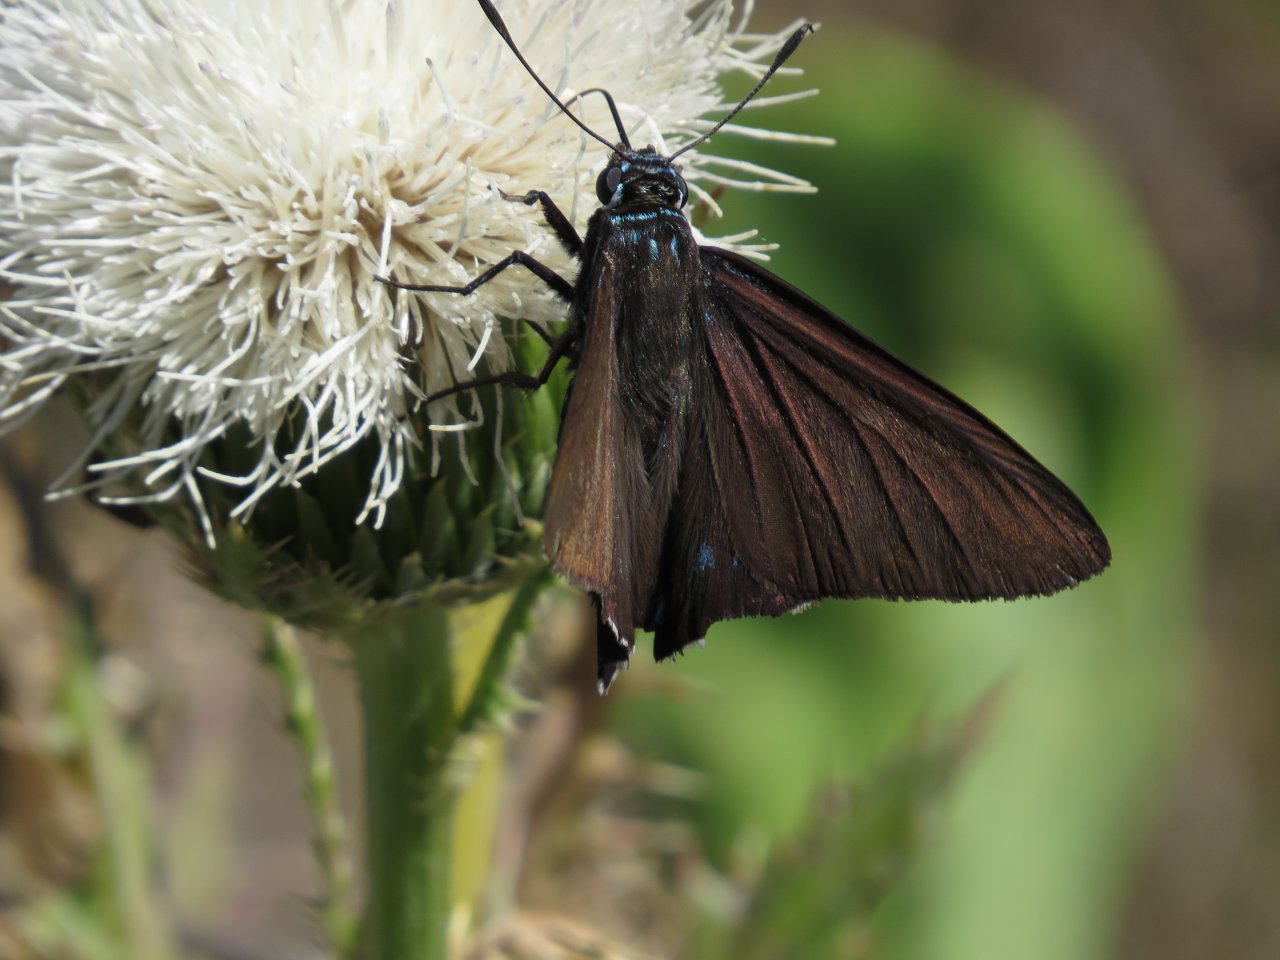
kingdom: Animalia
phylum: Arthropoda
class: Insecta
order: Lepidoptera
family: Hesperiidae
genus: Phocides
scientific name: Phocides pigmalion
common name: Mangrove Skipper
